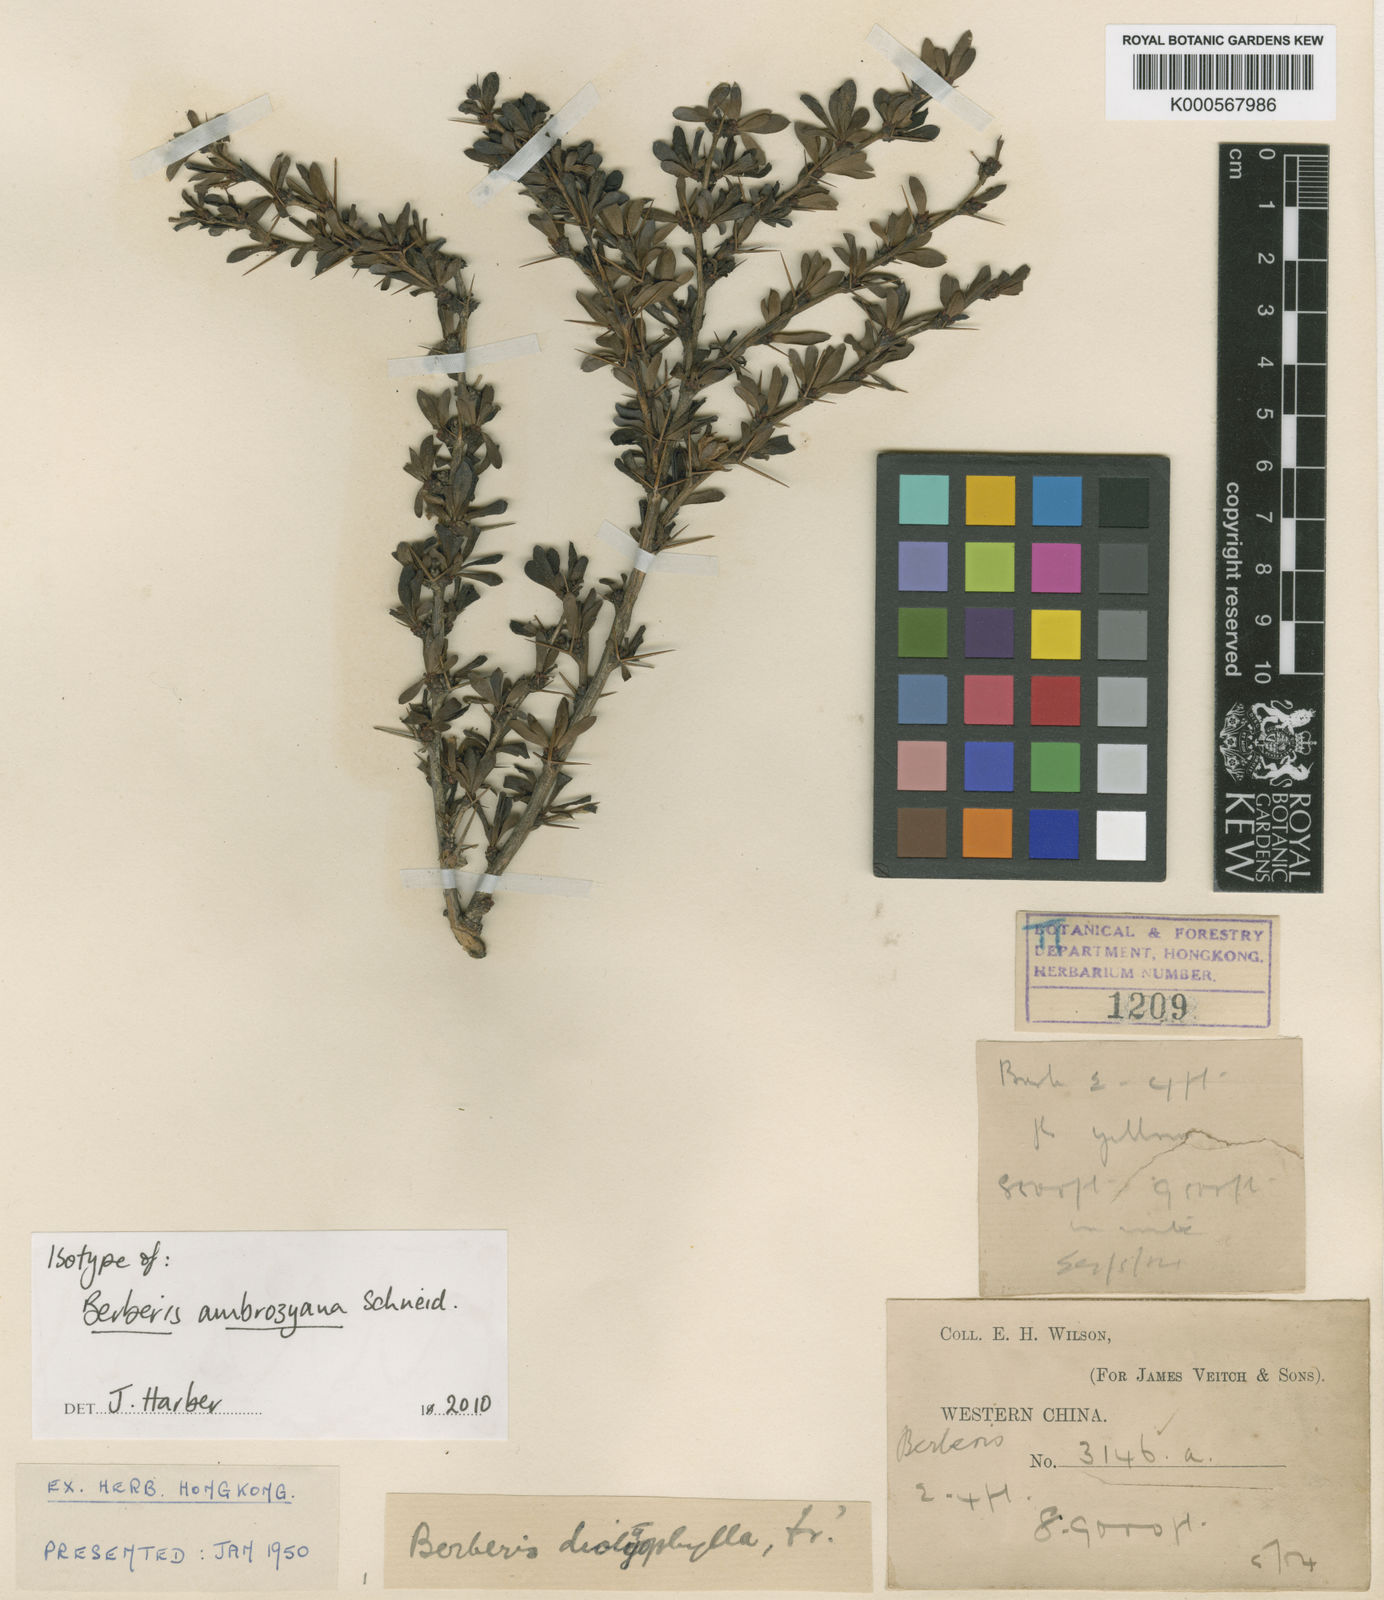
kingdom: Plantae
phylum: Tracheophyta
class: Magnoliopsida
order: Ranunculales
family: Berberidaceae
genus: Berberis
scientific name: Berberis ambrozyana
